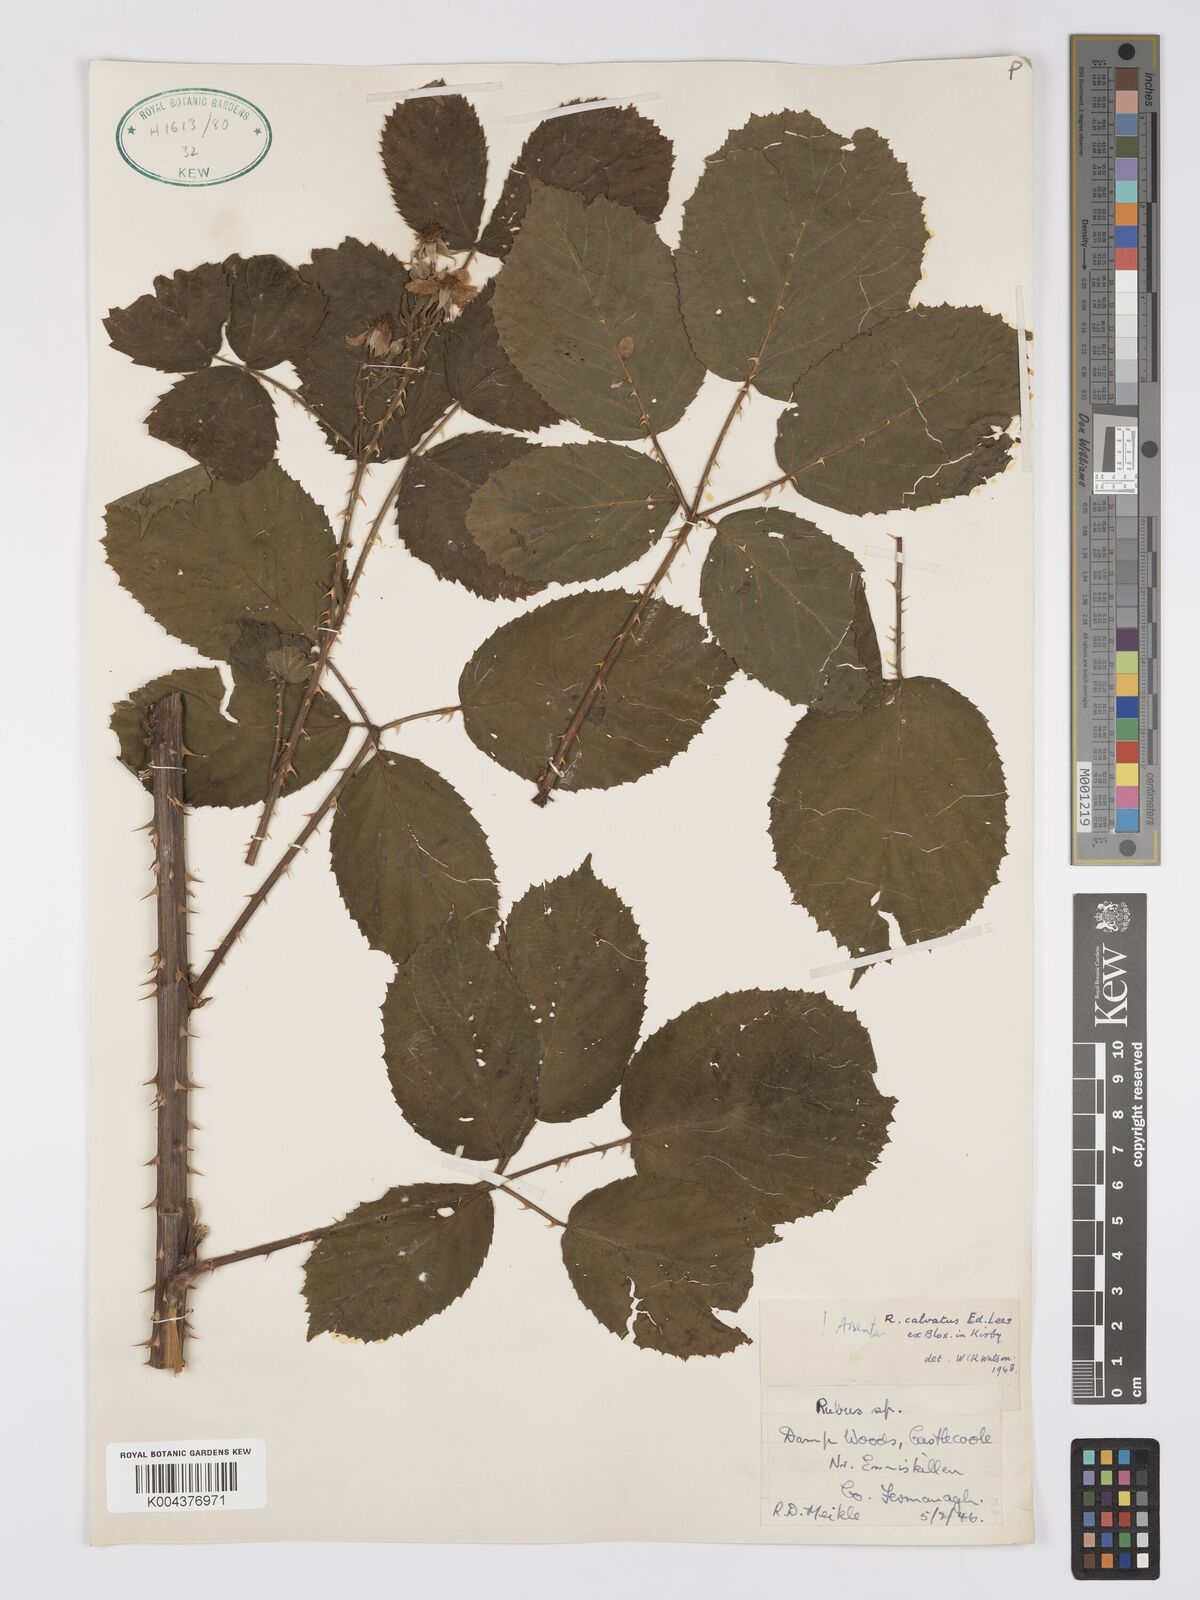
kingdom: Plantae
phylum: Tracheophyta
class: Magnoliopsida
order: Rosales
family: Rosaceae
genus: Rubus
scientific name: Rubus calvatus
